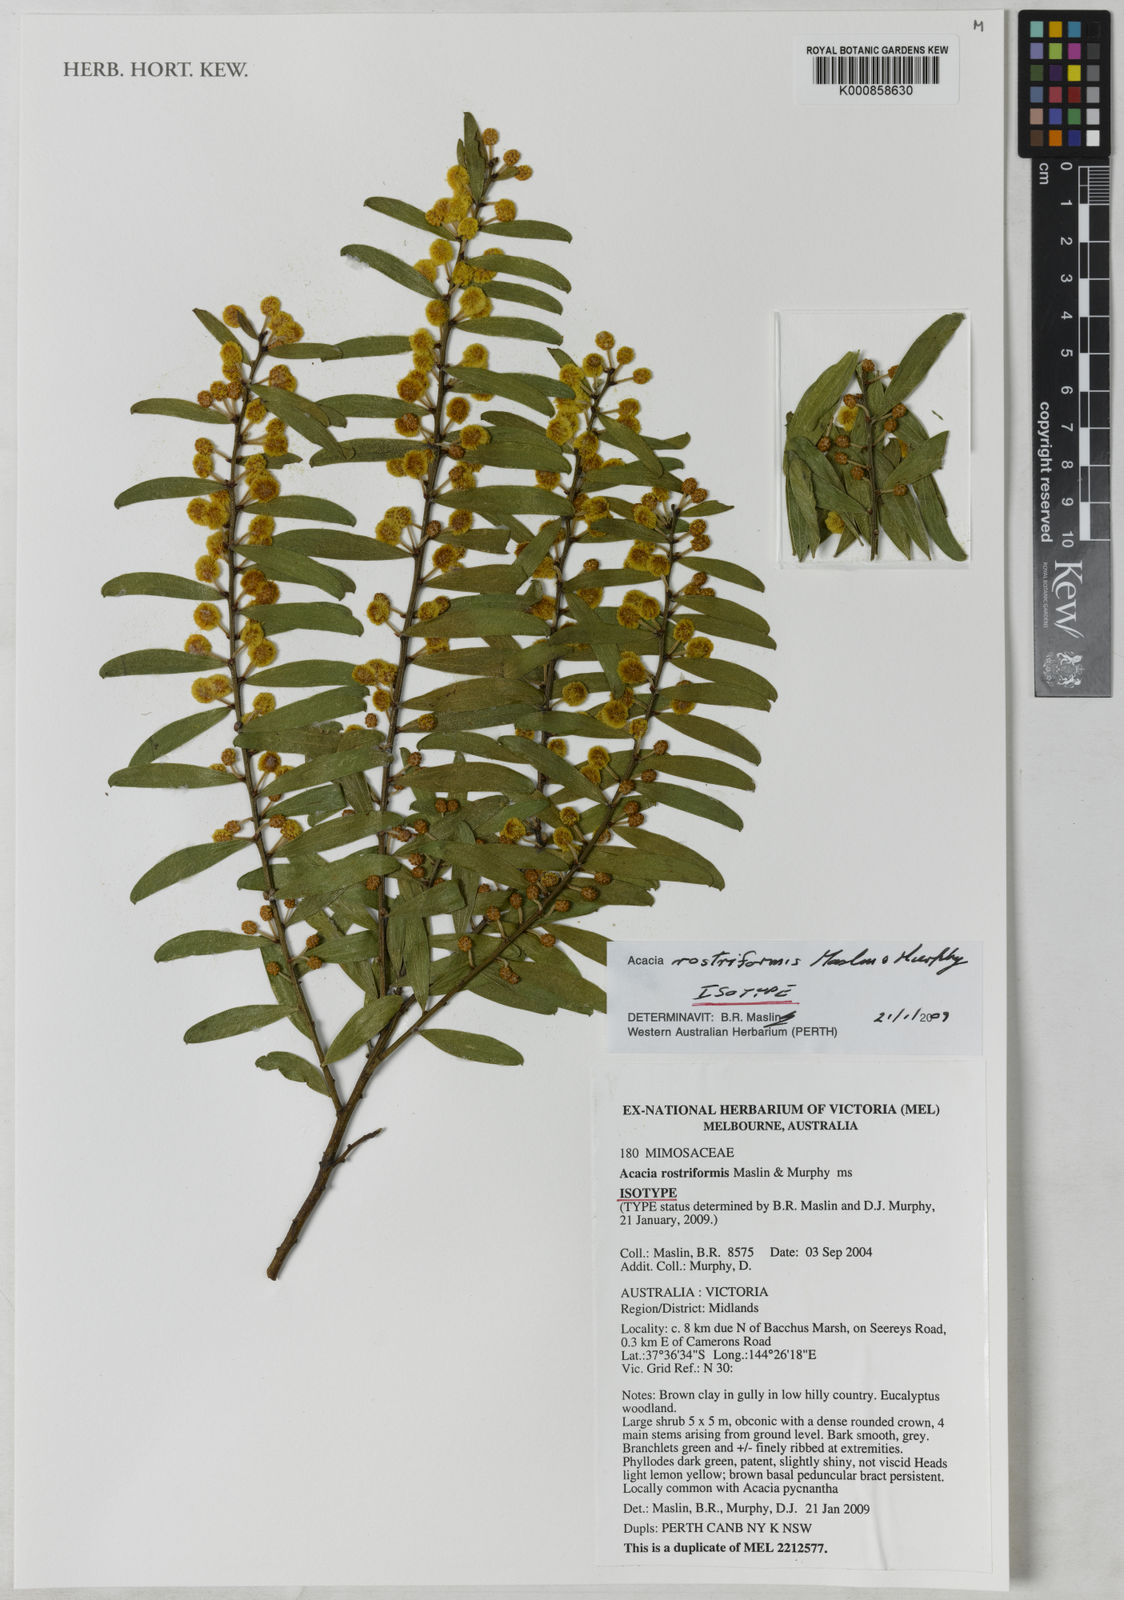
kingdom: Plantae
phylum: Tracheophyta
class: Magnoliopsida
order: Fabales
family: Fabaceae
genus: Acacia
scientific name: Acacia rostriformis
